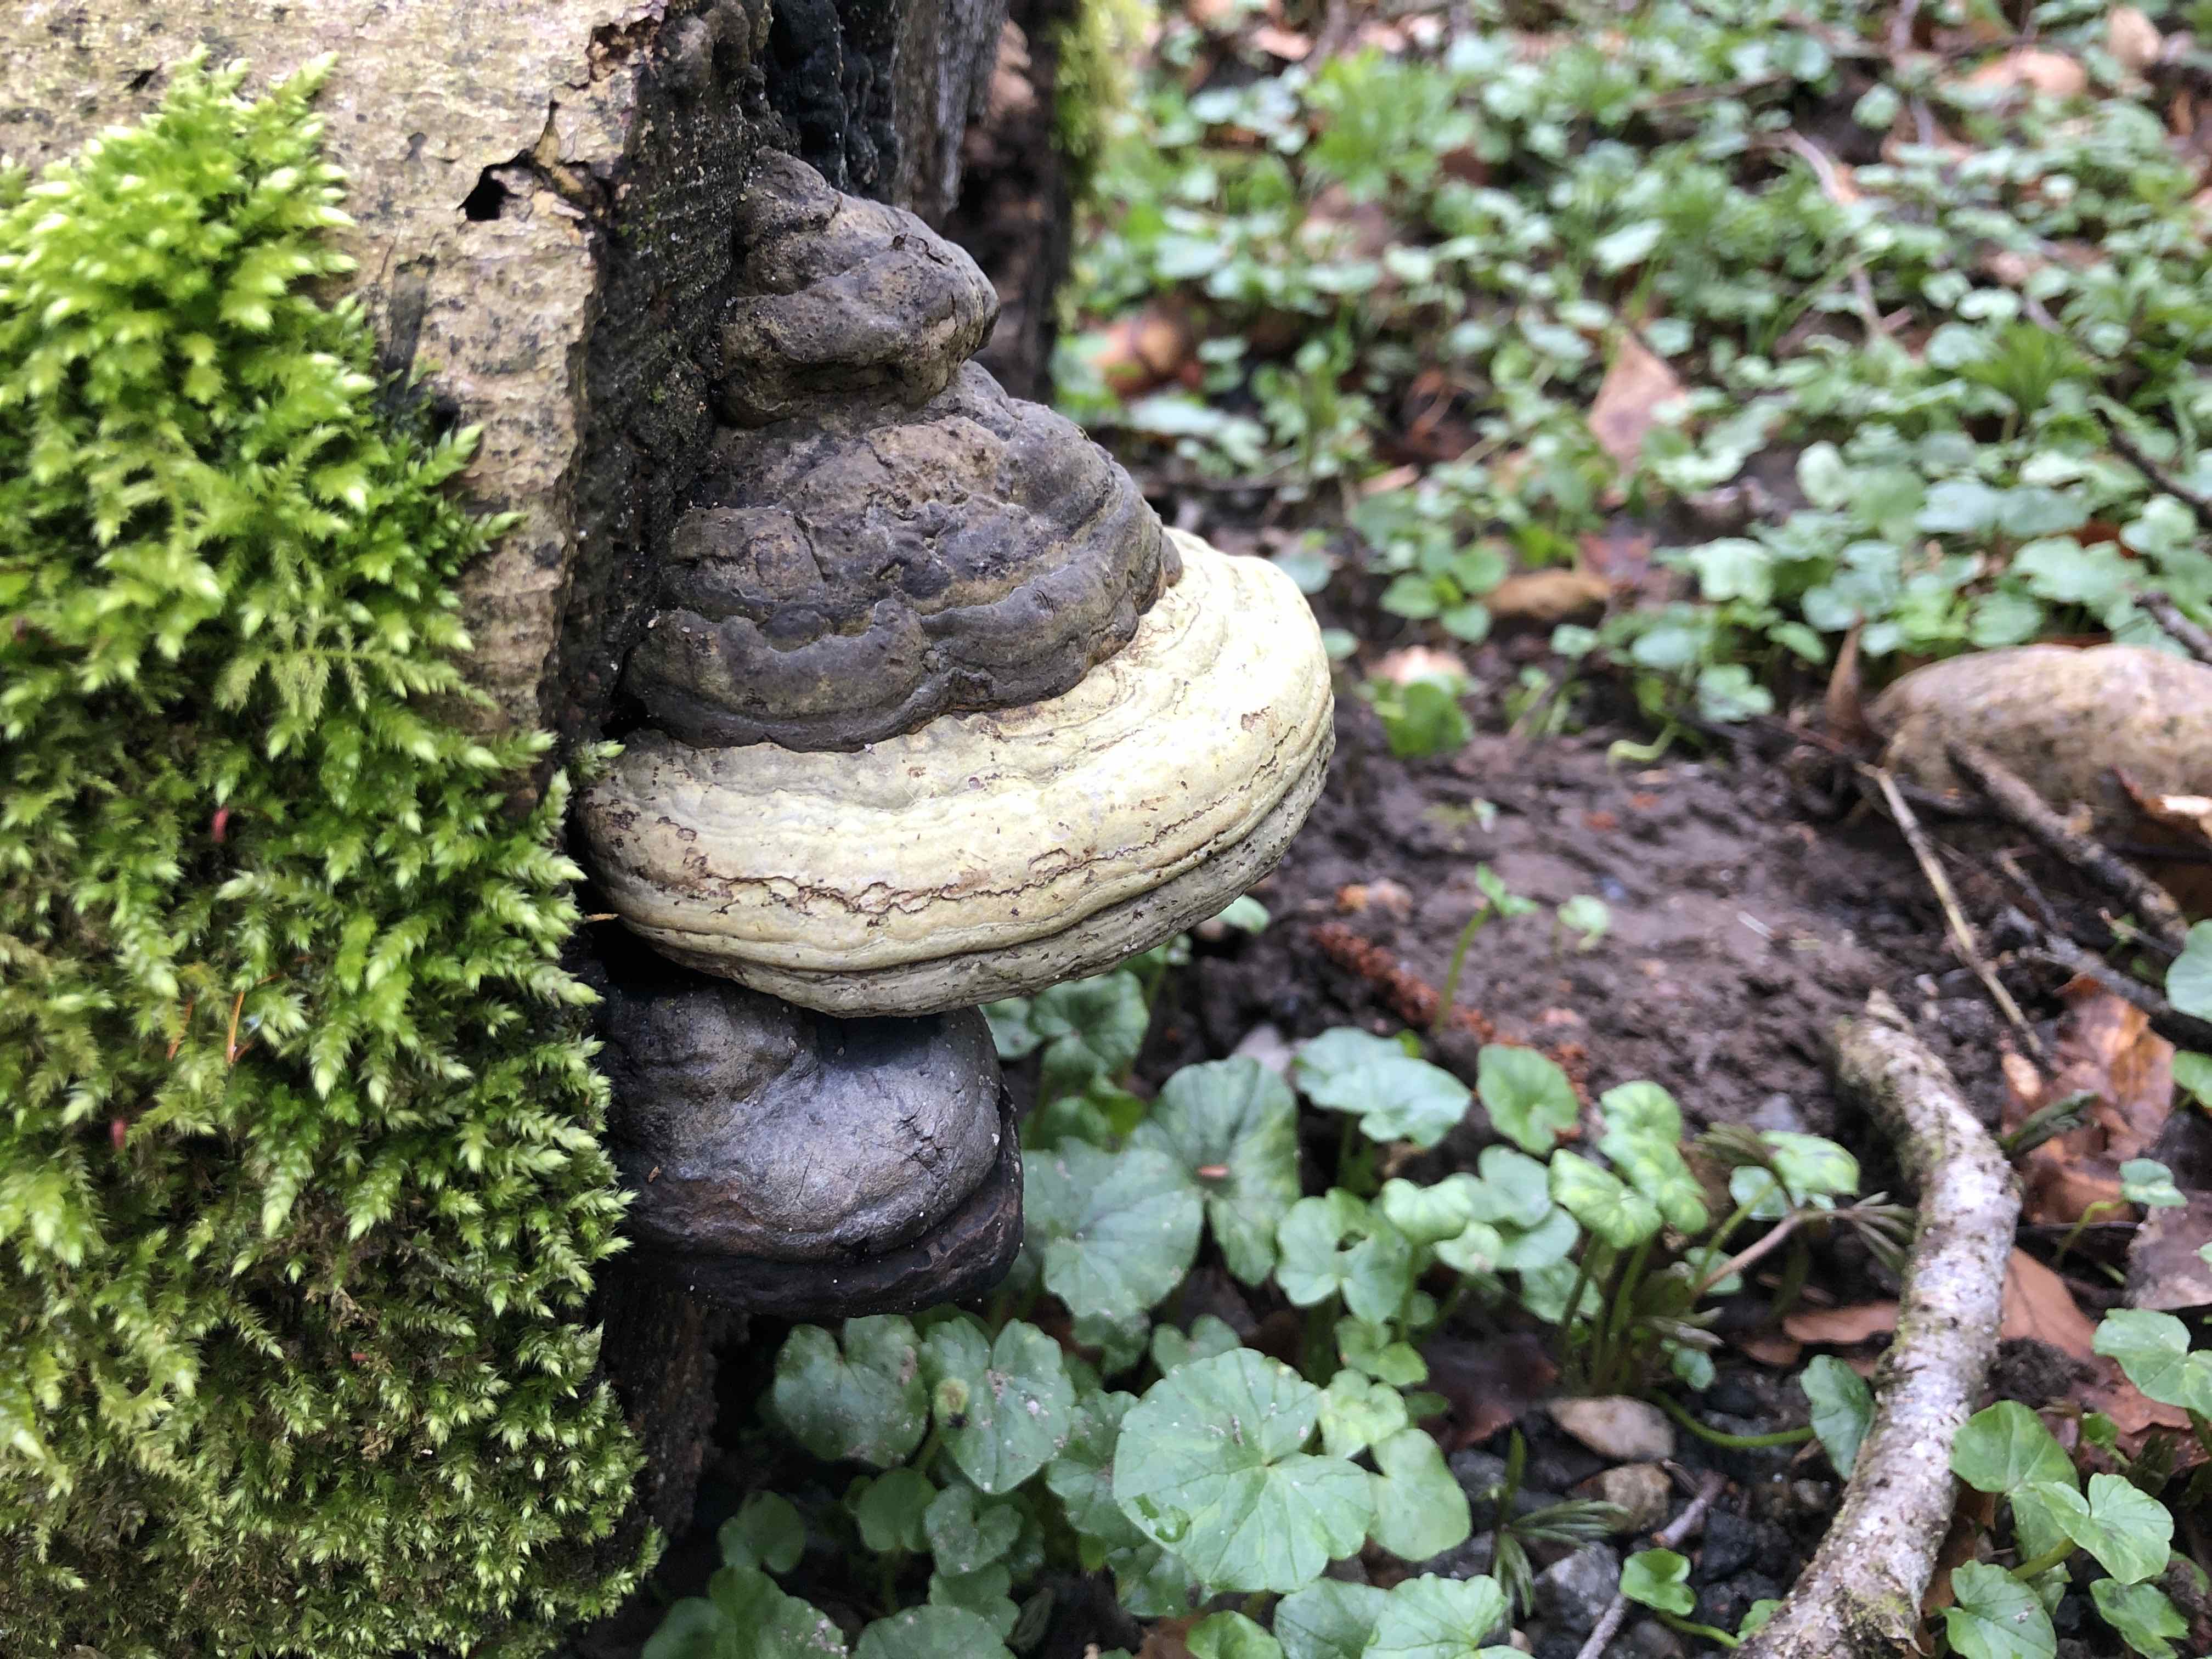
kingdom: Fungi
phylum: Basidiomycota
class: Agaricomycetes
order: Polyporales
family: Polyporaceae
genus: Fomes
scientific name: Fomes fomentarius
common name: tøndersvamp
